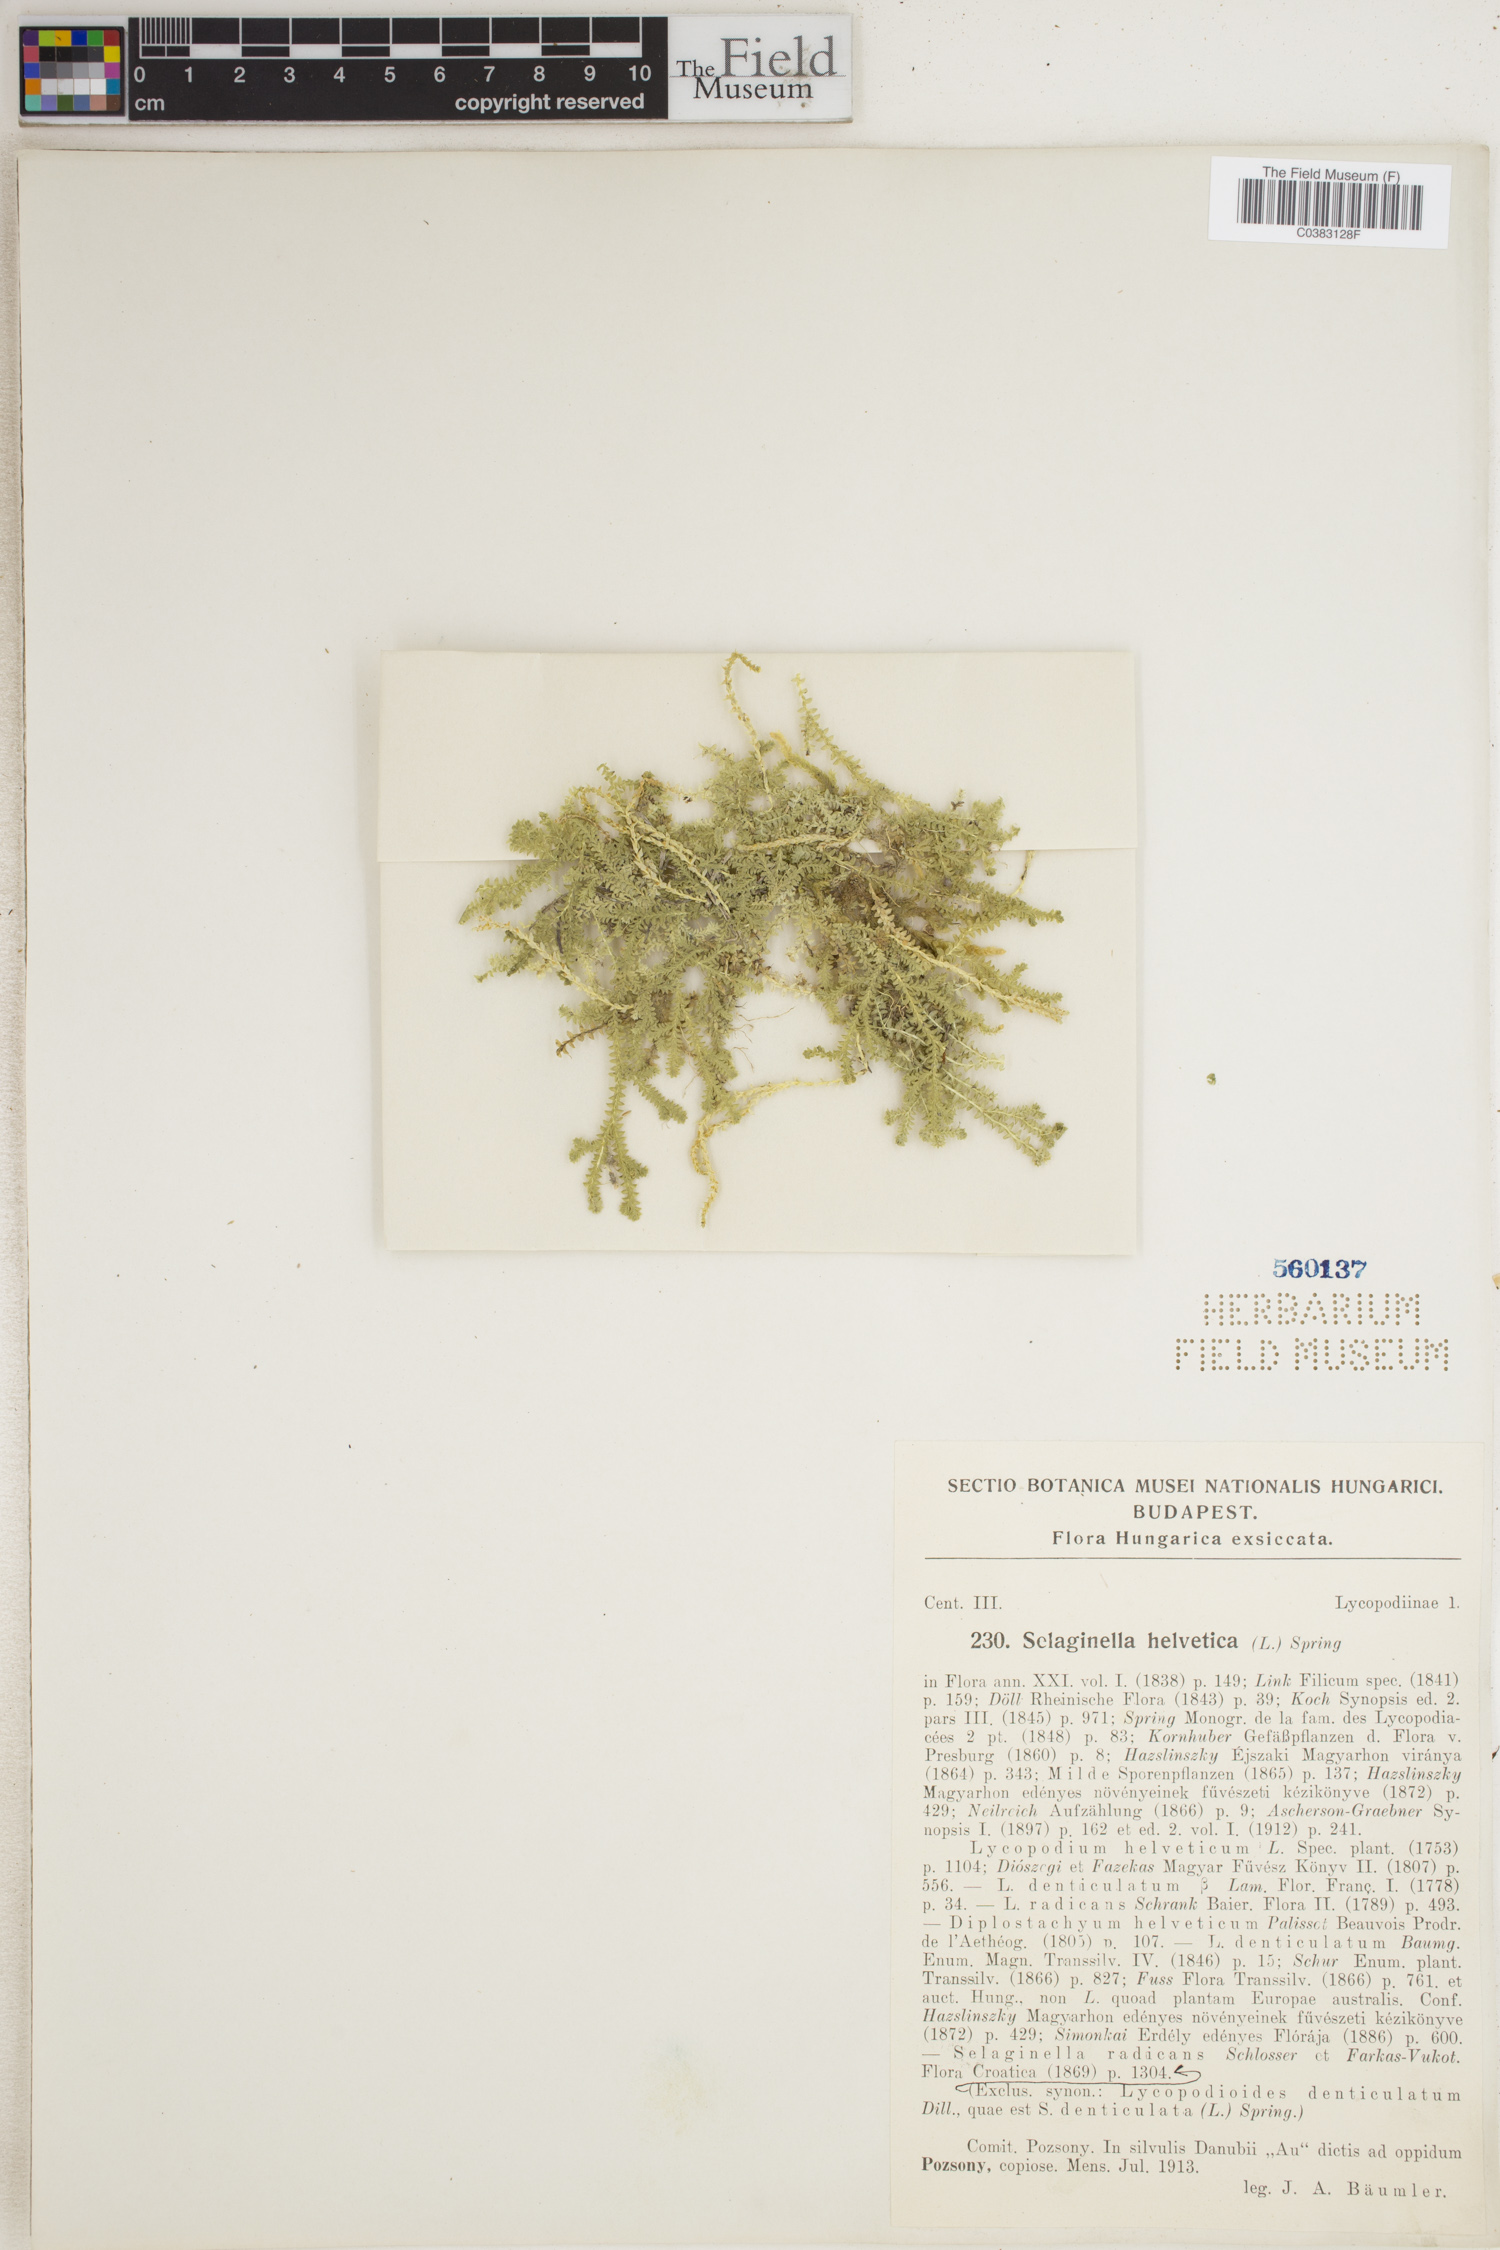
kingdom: Plantae
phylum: Tracheophyta
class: Lycopodiopsida
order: Selaginellales
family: Selaginellaceae
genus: Selaginella
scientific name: Selaginella helvetica
